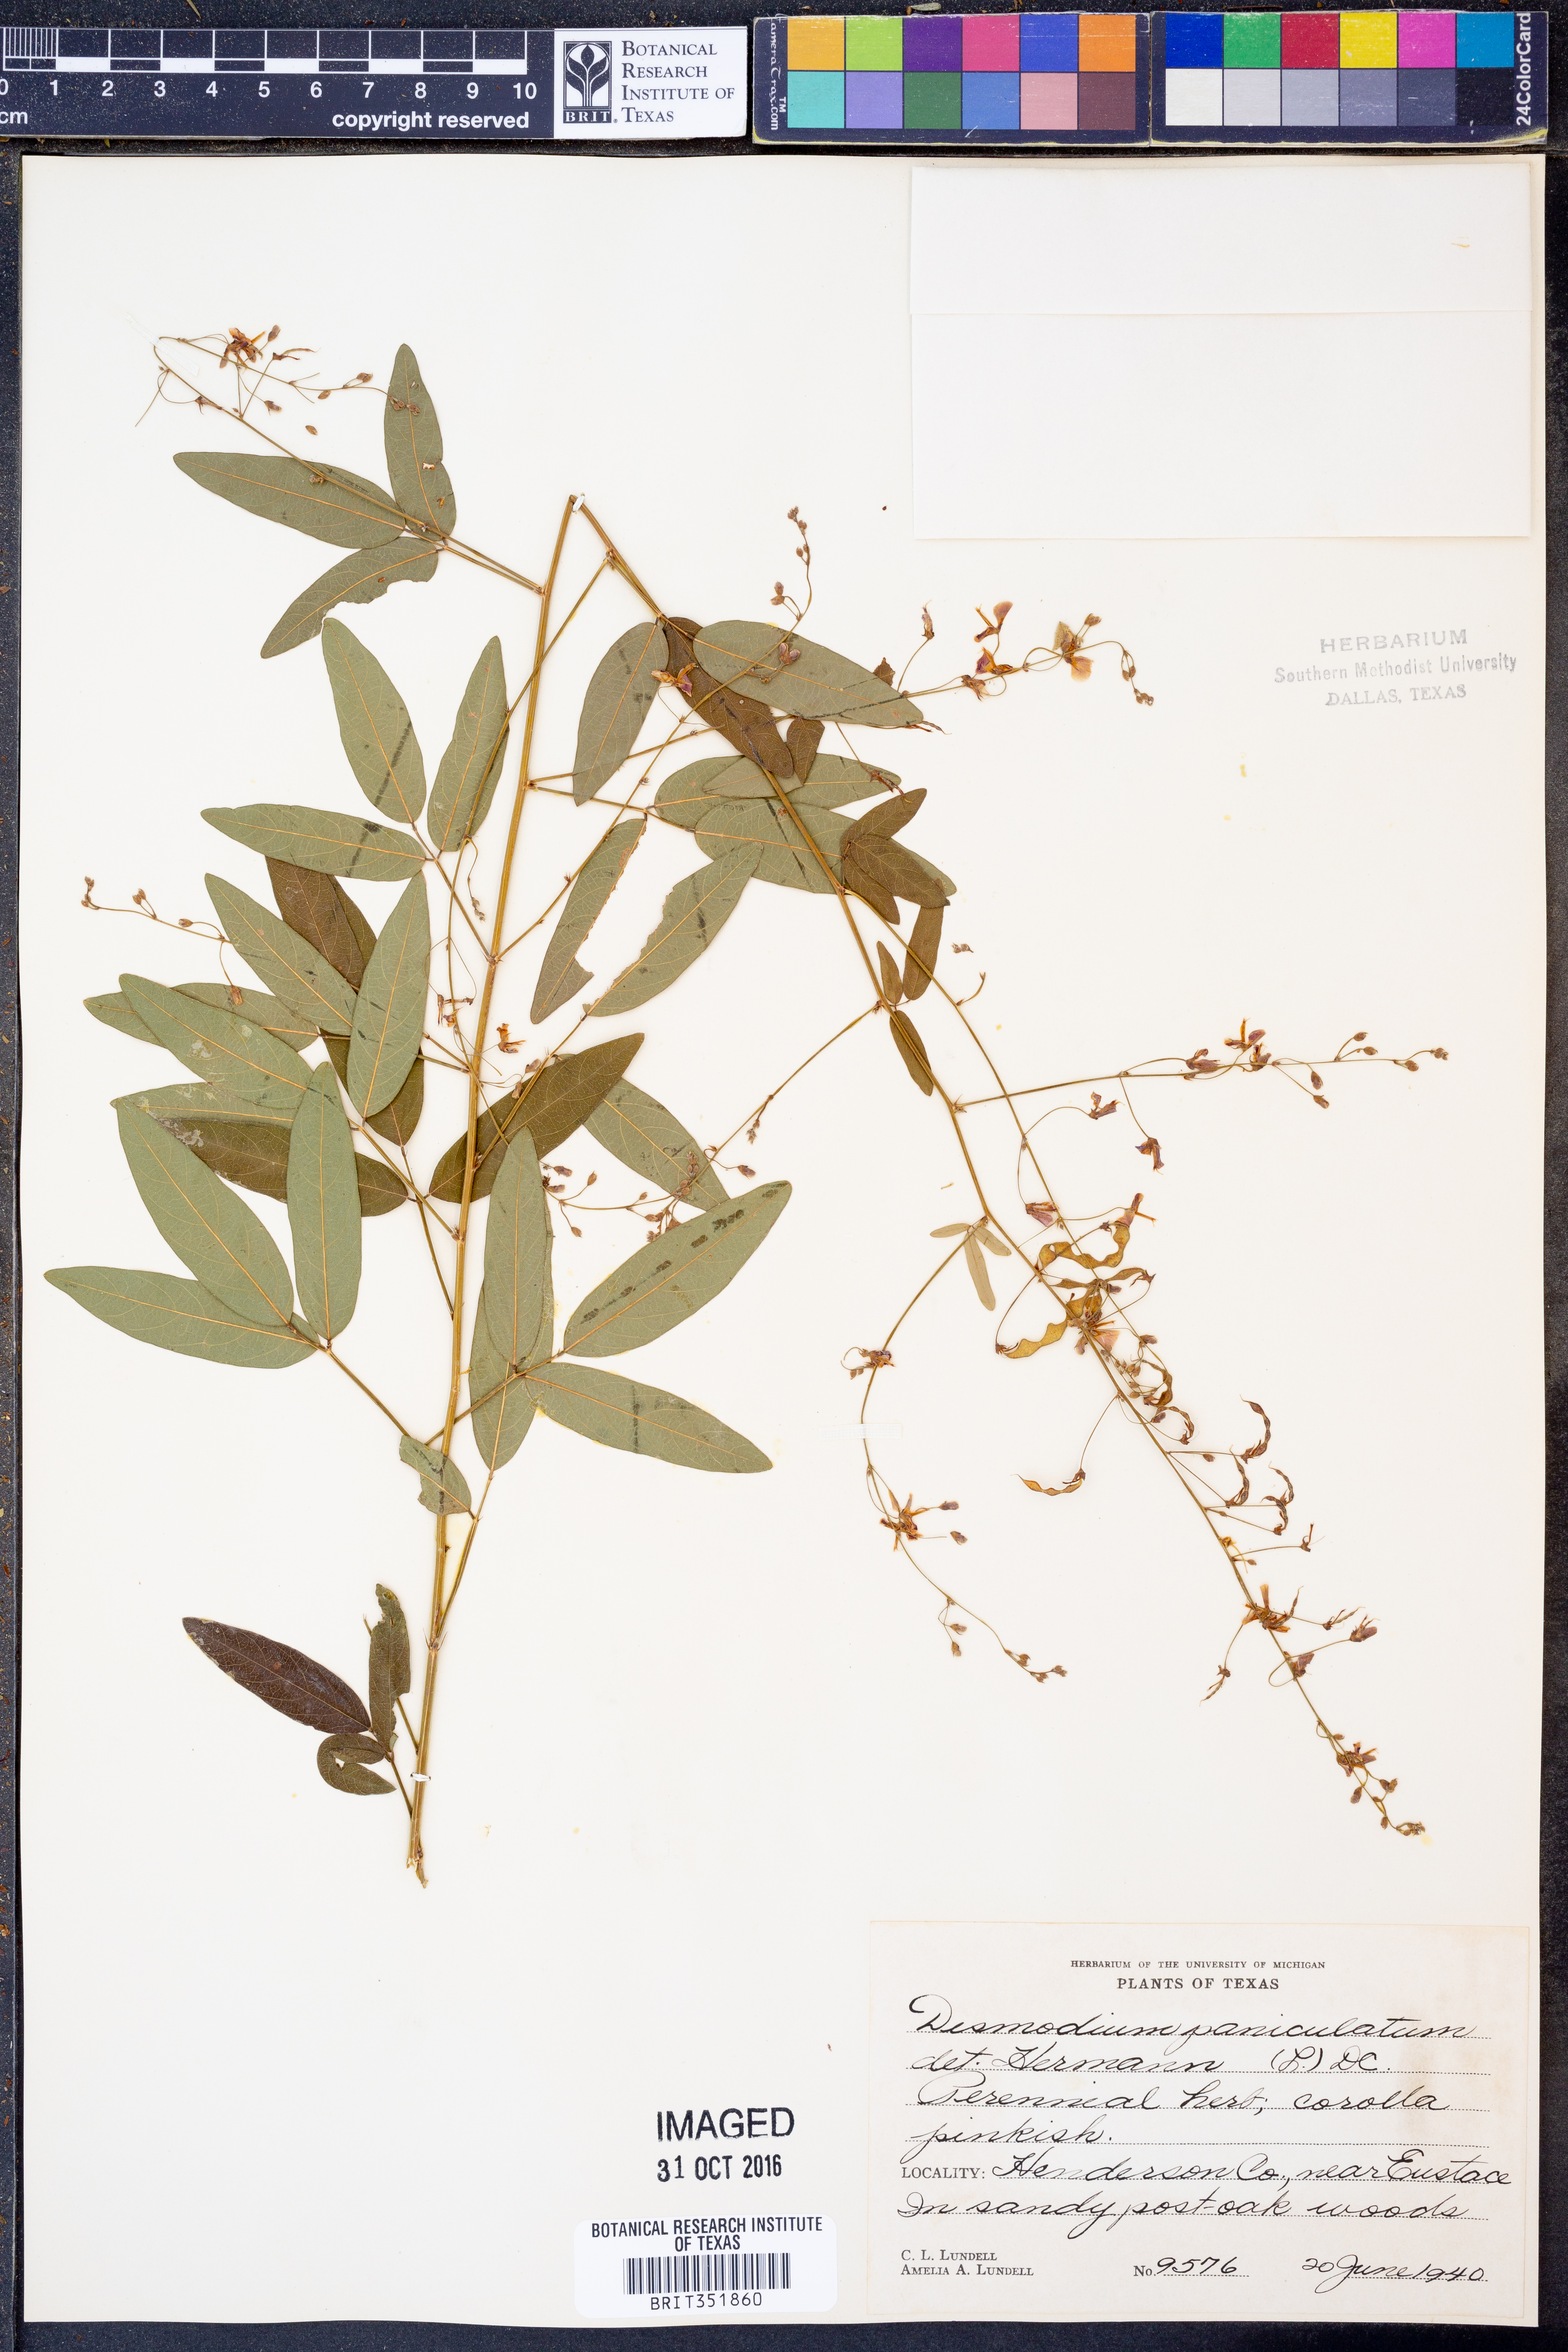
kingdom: Plantae
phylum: Tracheophyta
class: Magnoliopsida
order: Fabales
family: Fabaceae
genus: Desmodium
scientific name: Desmodium paniculatum
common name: Panicled tick-clover
